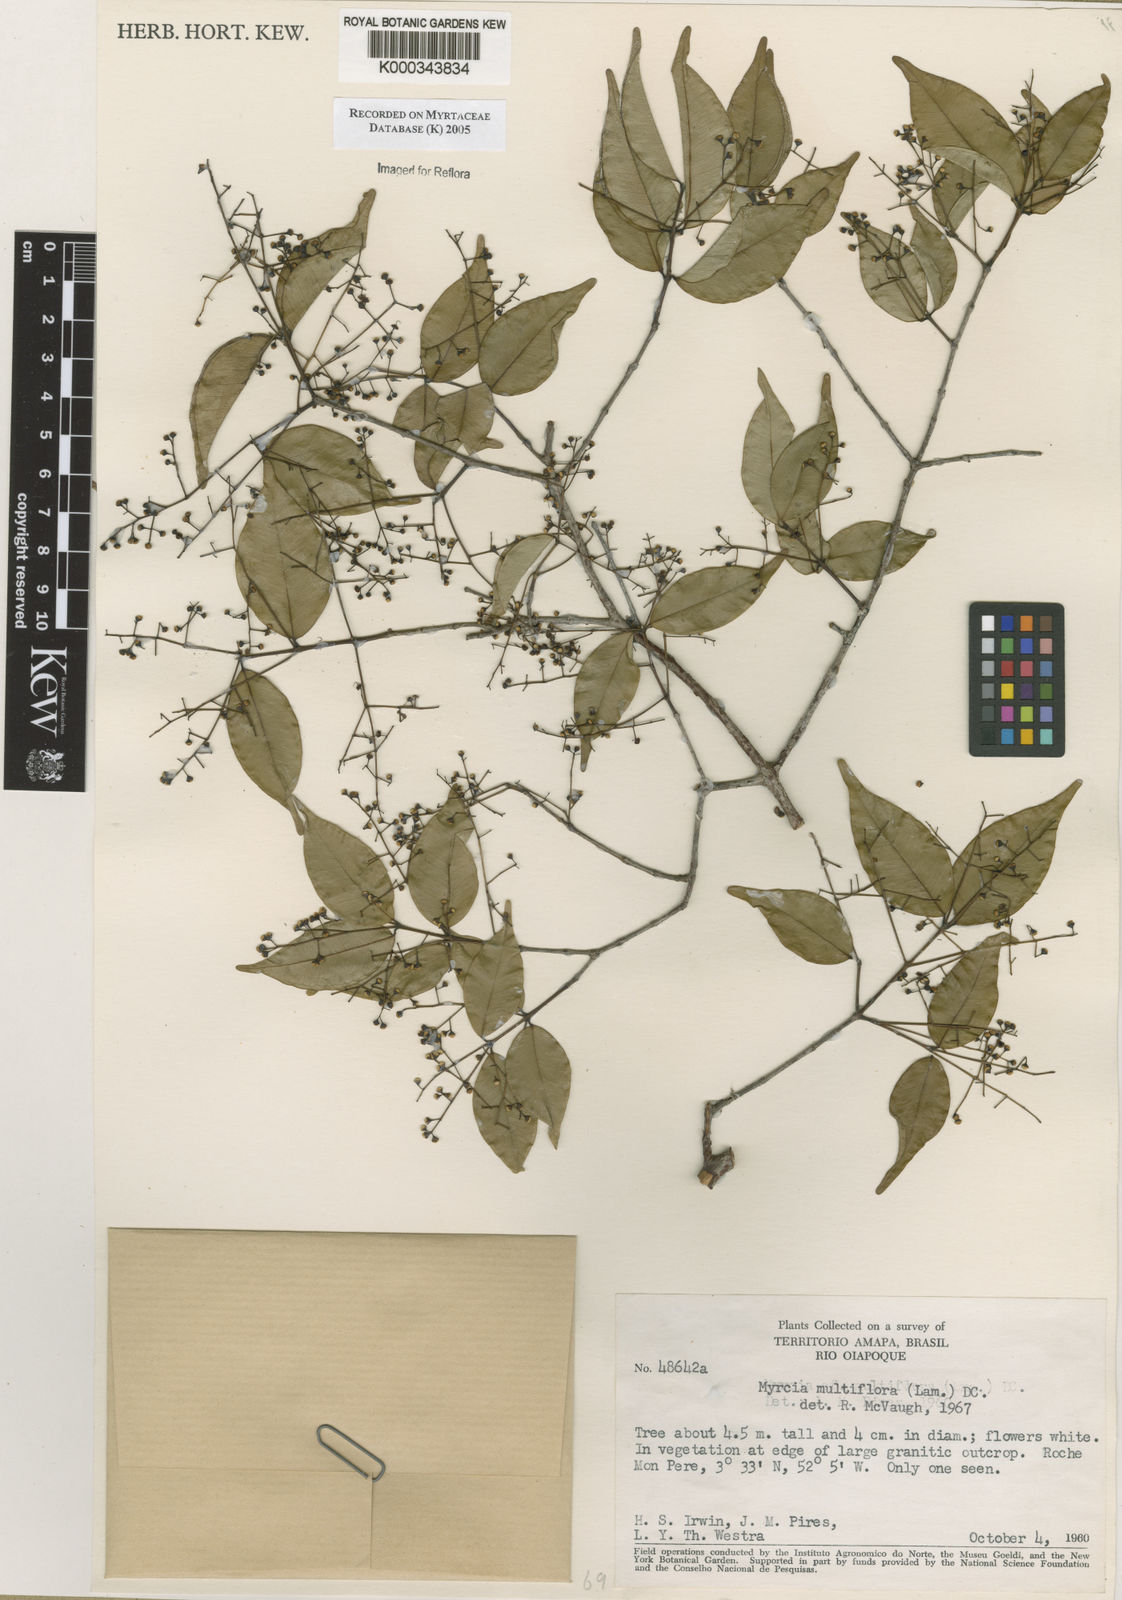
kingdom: Plantae
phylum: Tracheophyta
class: Magnoliopsida
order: Myrtales
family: Myrtaceae
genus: Myrcia
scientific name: Myrcia multiflora
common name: Pedra hume
